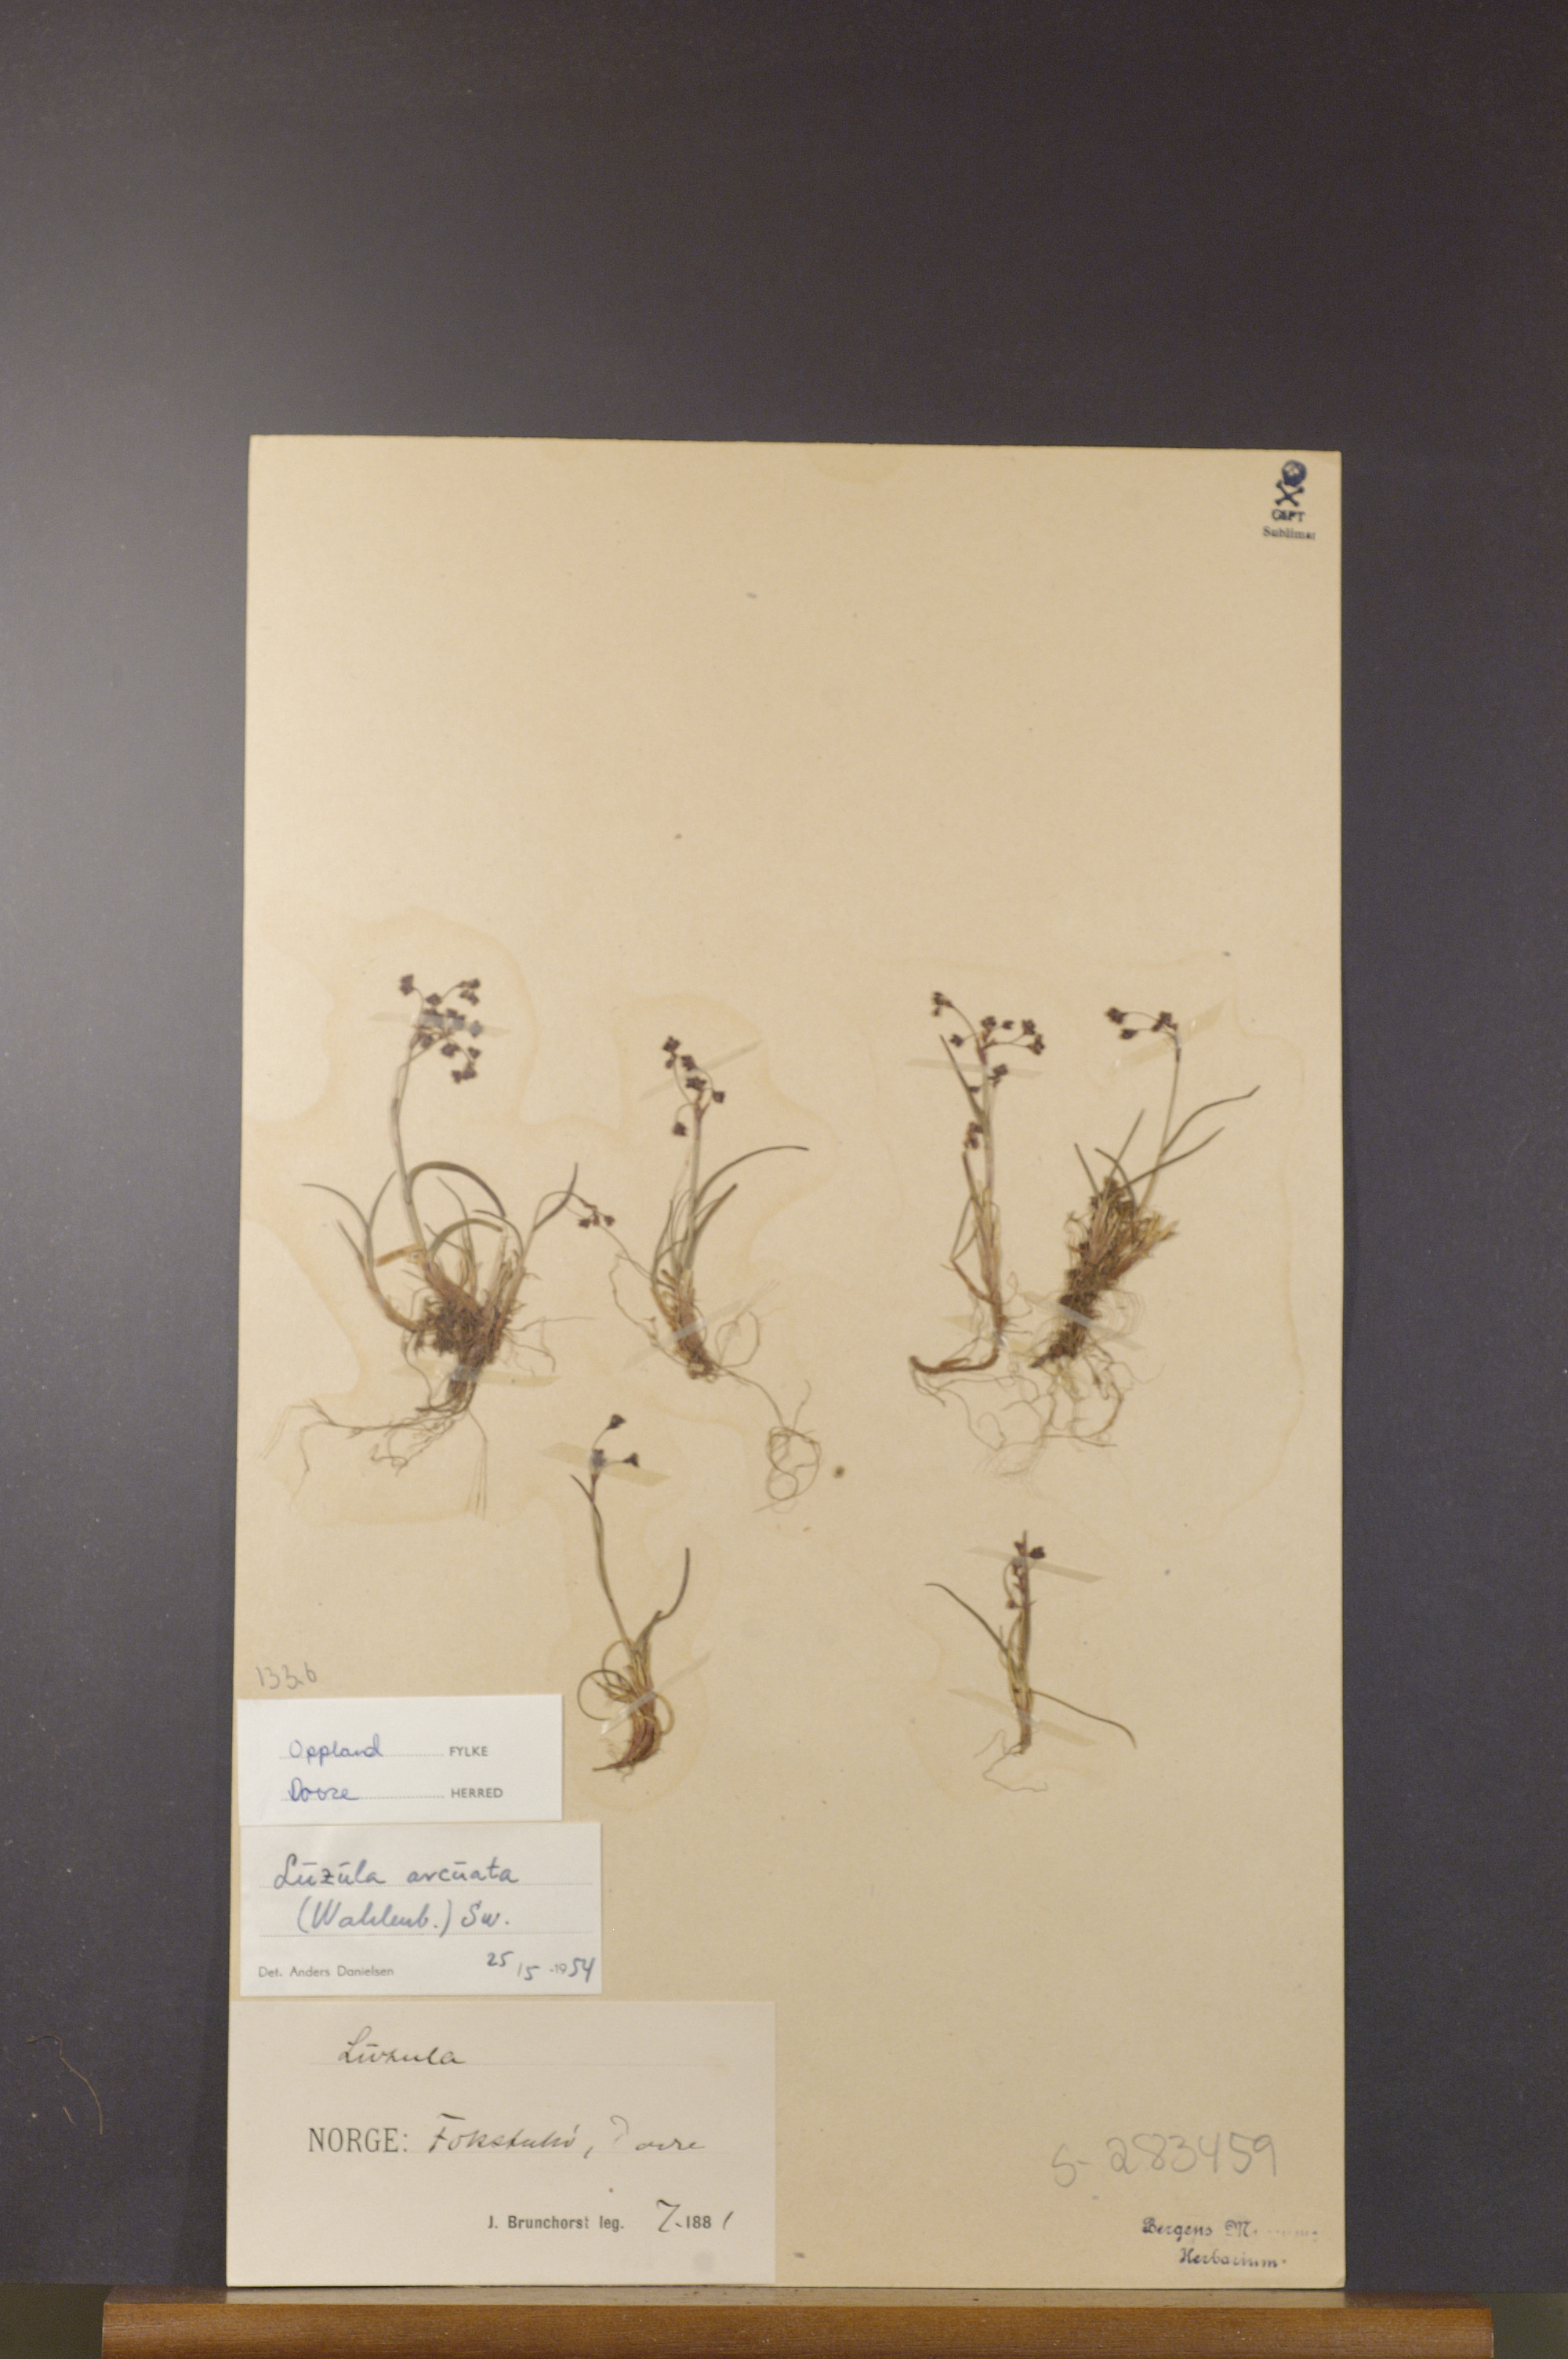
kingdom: Plantae
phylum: Tracheophyta
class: Liliopsida
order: Poales
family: Juncaceae
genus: Luzula
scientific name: Luzula arcuata
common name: Curved wood-rush
